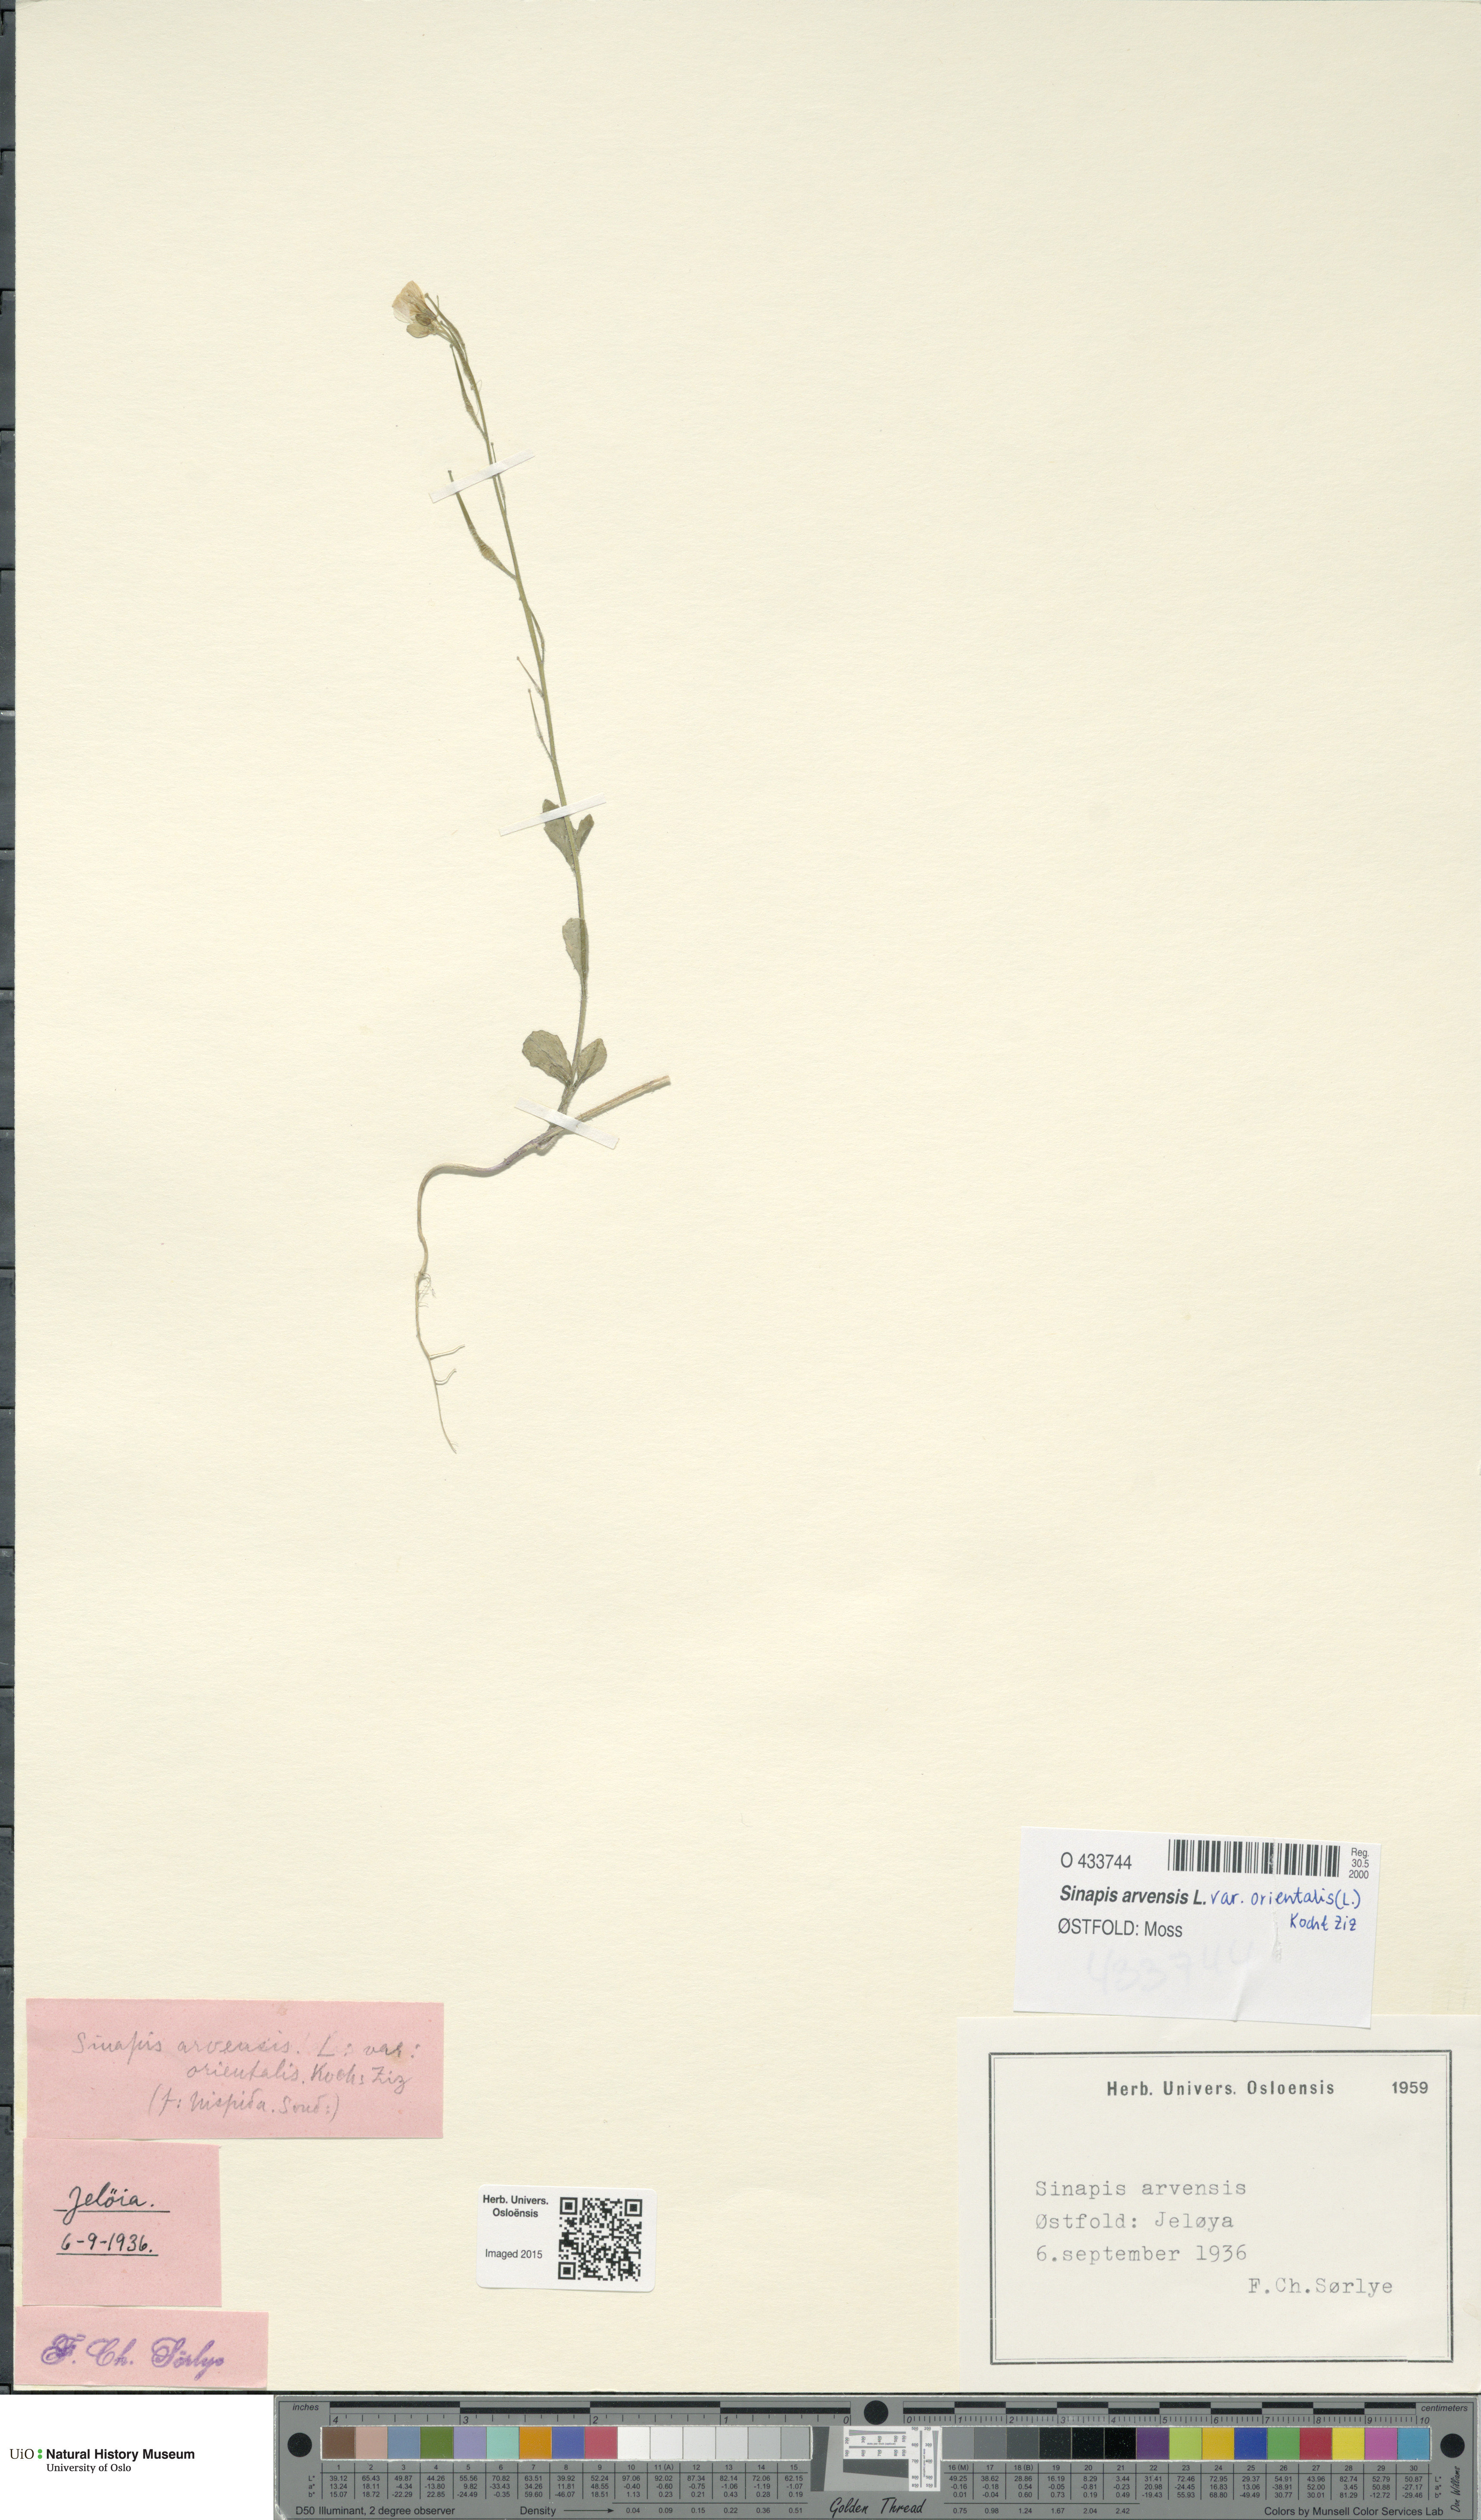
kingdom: Plantae
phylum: Tracheophyta
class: Magnoliopsida
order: Brassicales
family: Brassicaceae
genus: Sinapis
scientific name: Sinapis arvensis
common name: Charlock
